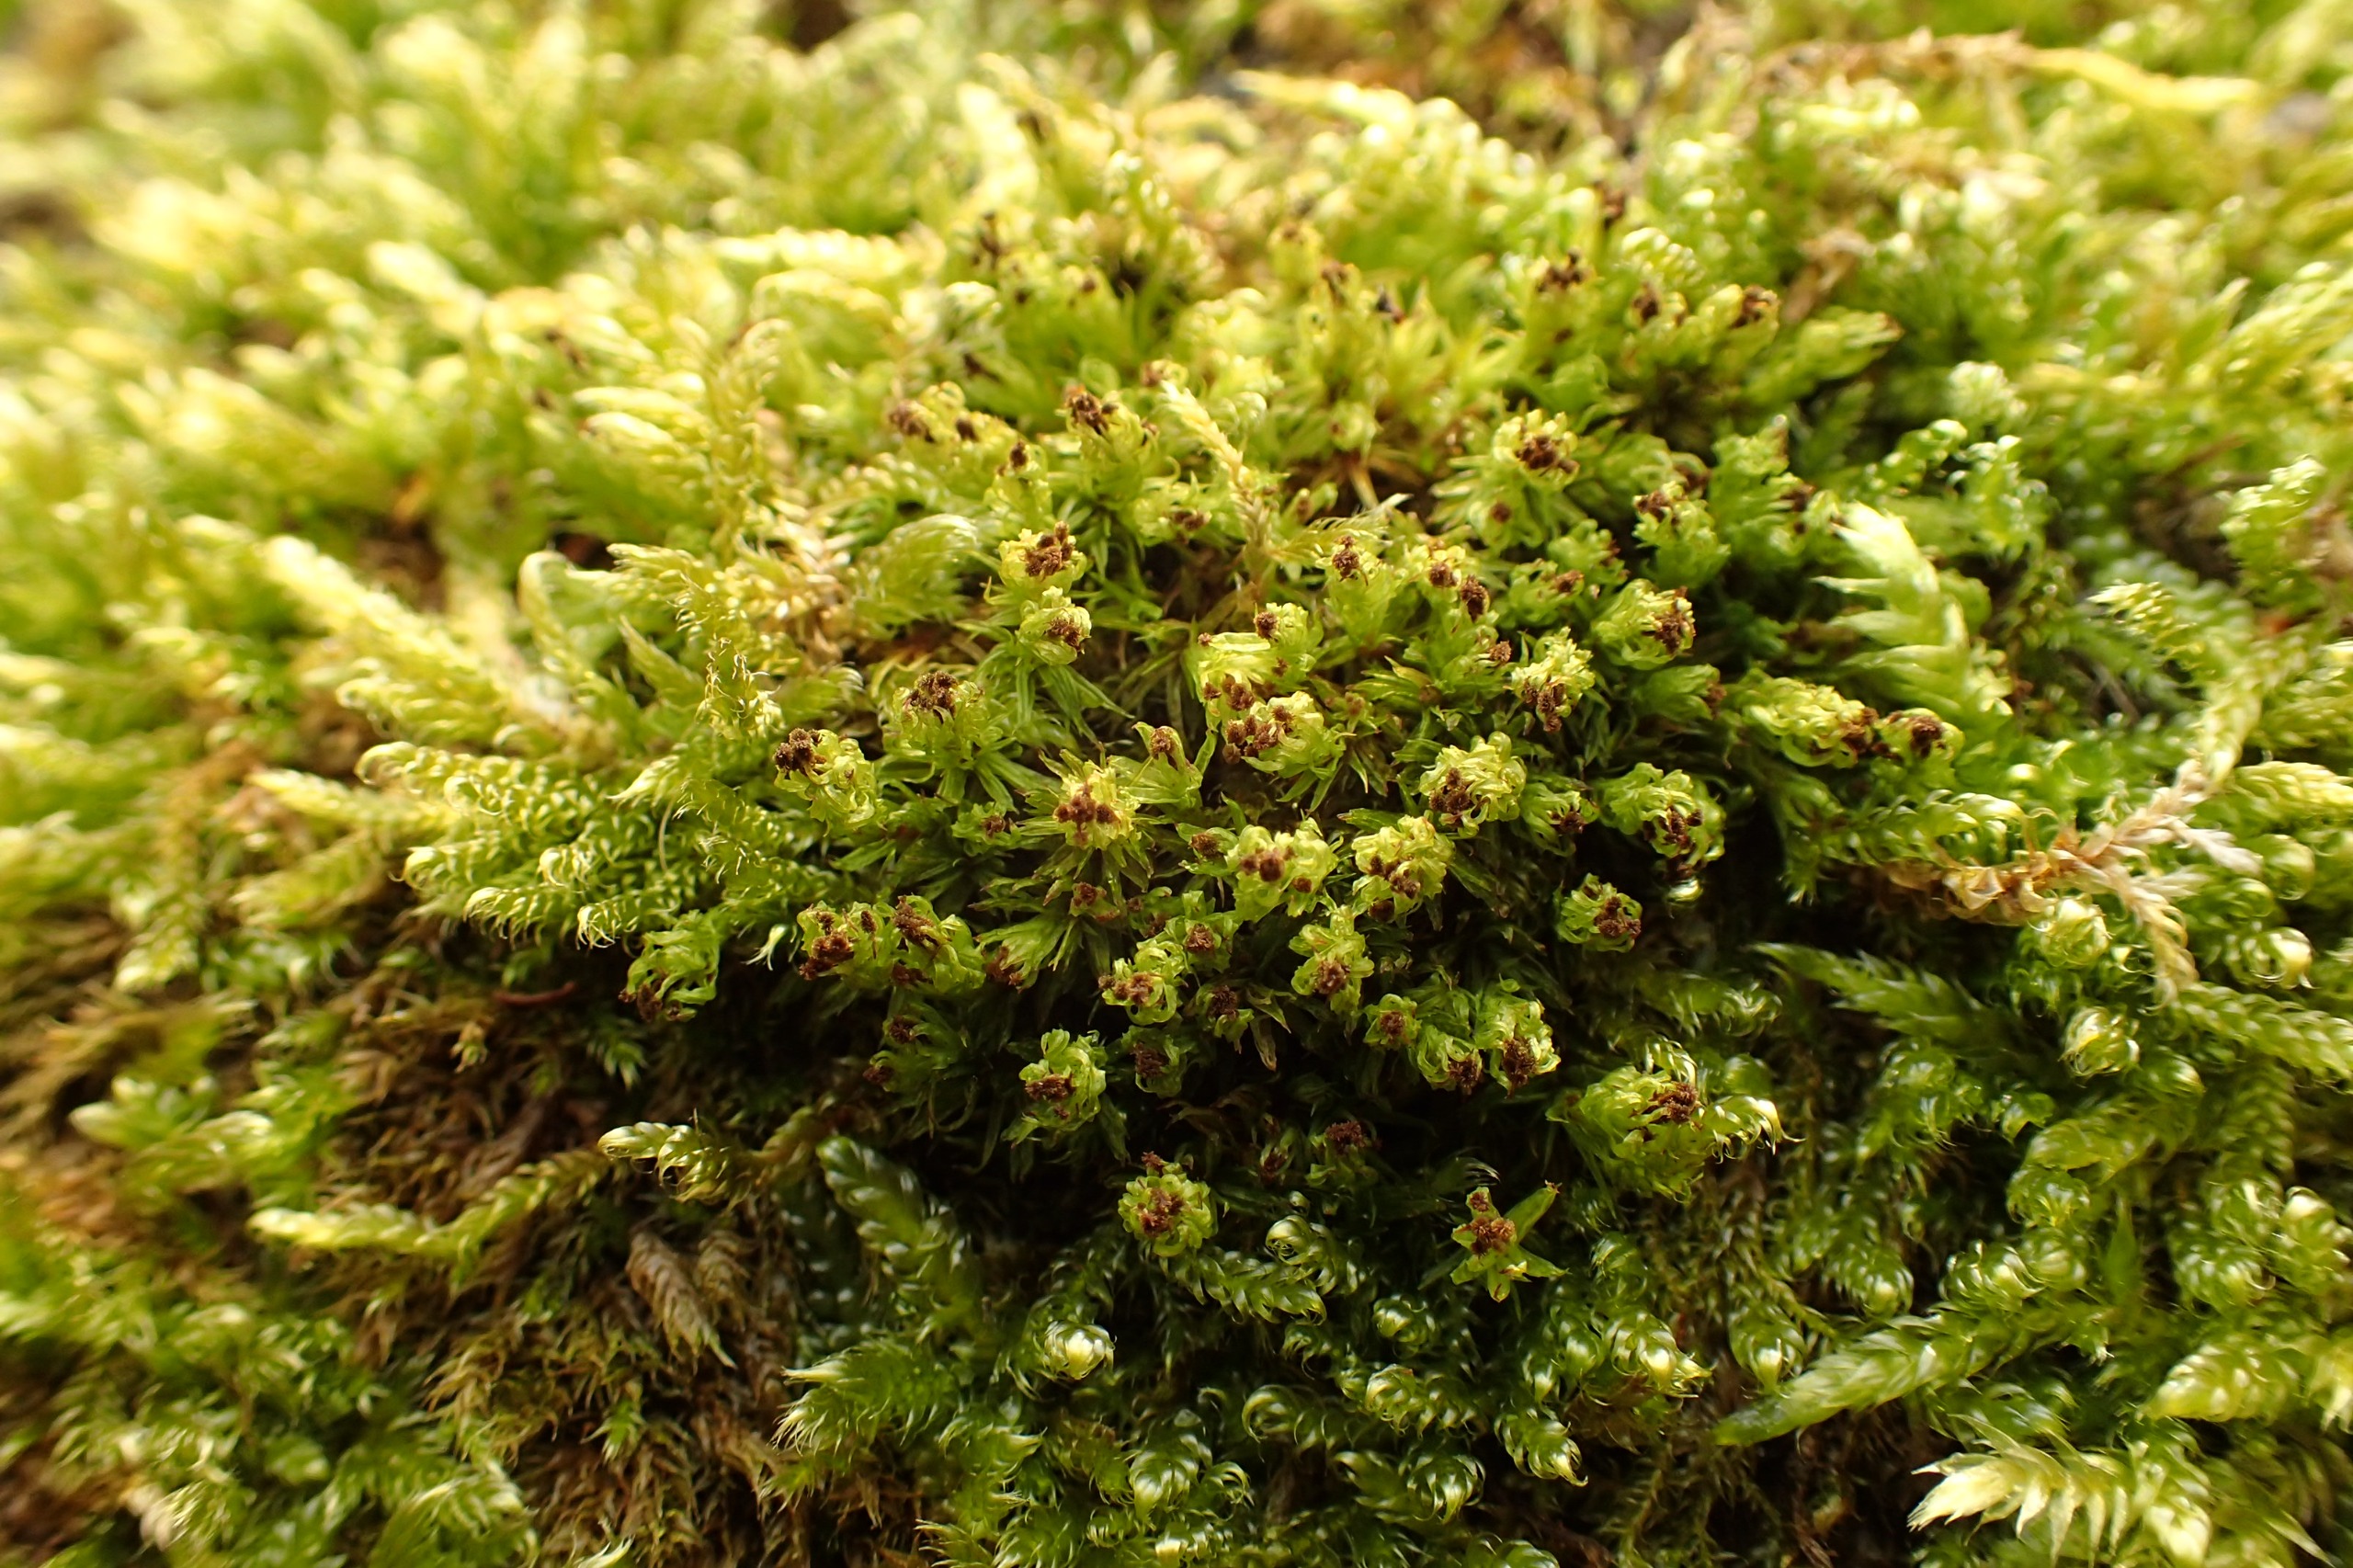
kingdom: Plantae
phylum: Bryophyta
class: Bryopsida
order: Orthotrichales
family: Orthotrichaceae
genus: Plenogemma
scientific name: Plenogemma phyllantha
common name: Stor låddenhætte
